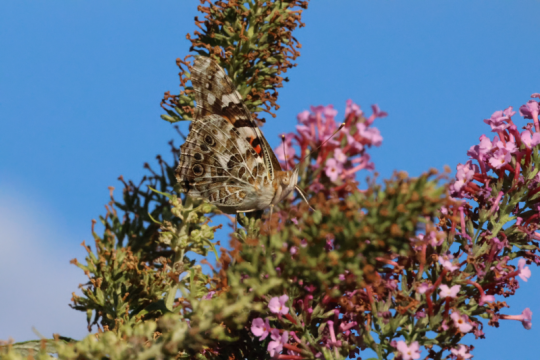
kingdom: Animalia
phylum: Arthropoda
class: Insecta
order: Lepidoptera
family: Nymphalidae
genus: Vanessa
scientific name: Vanessa cardui
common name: Painted Lady
